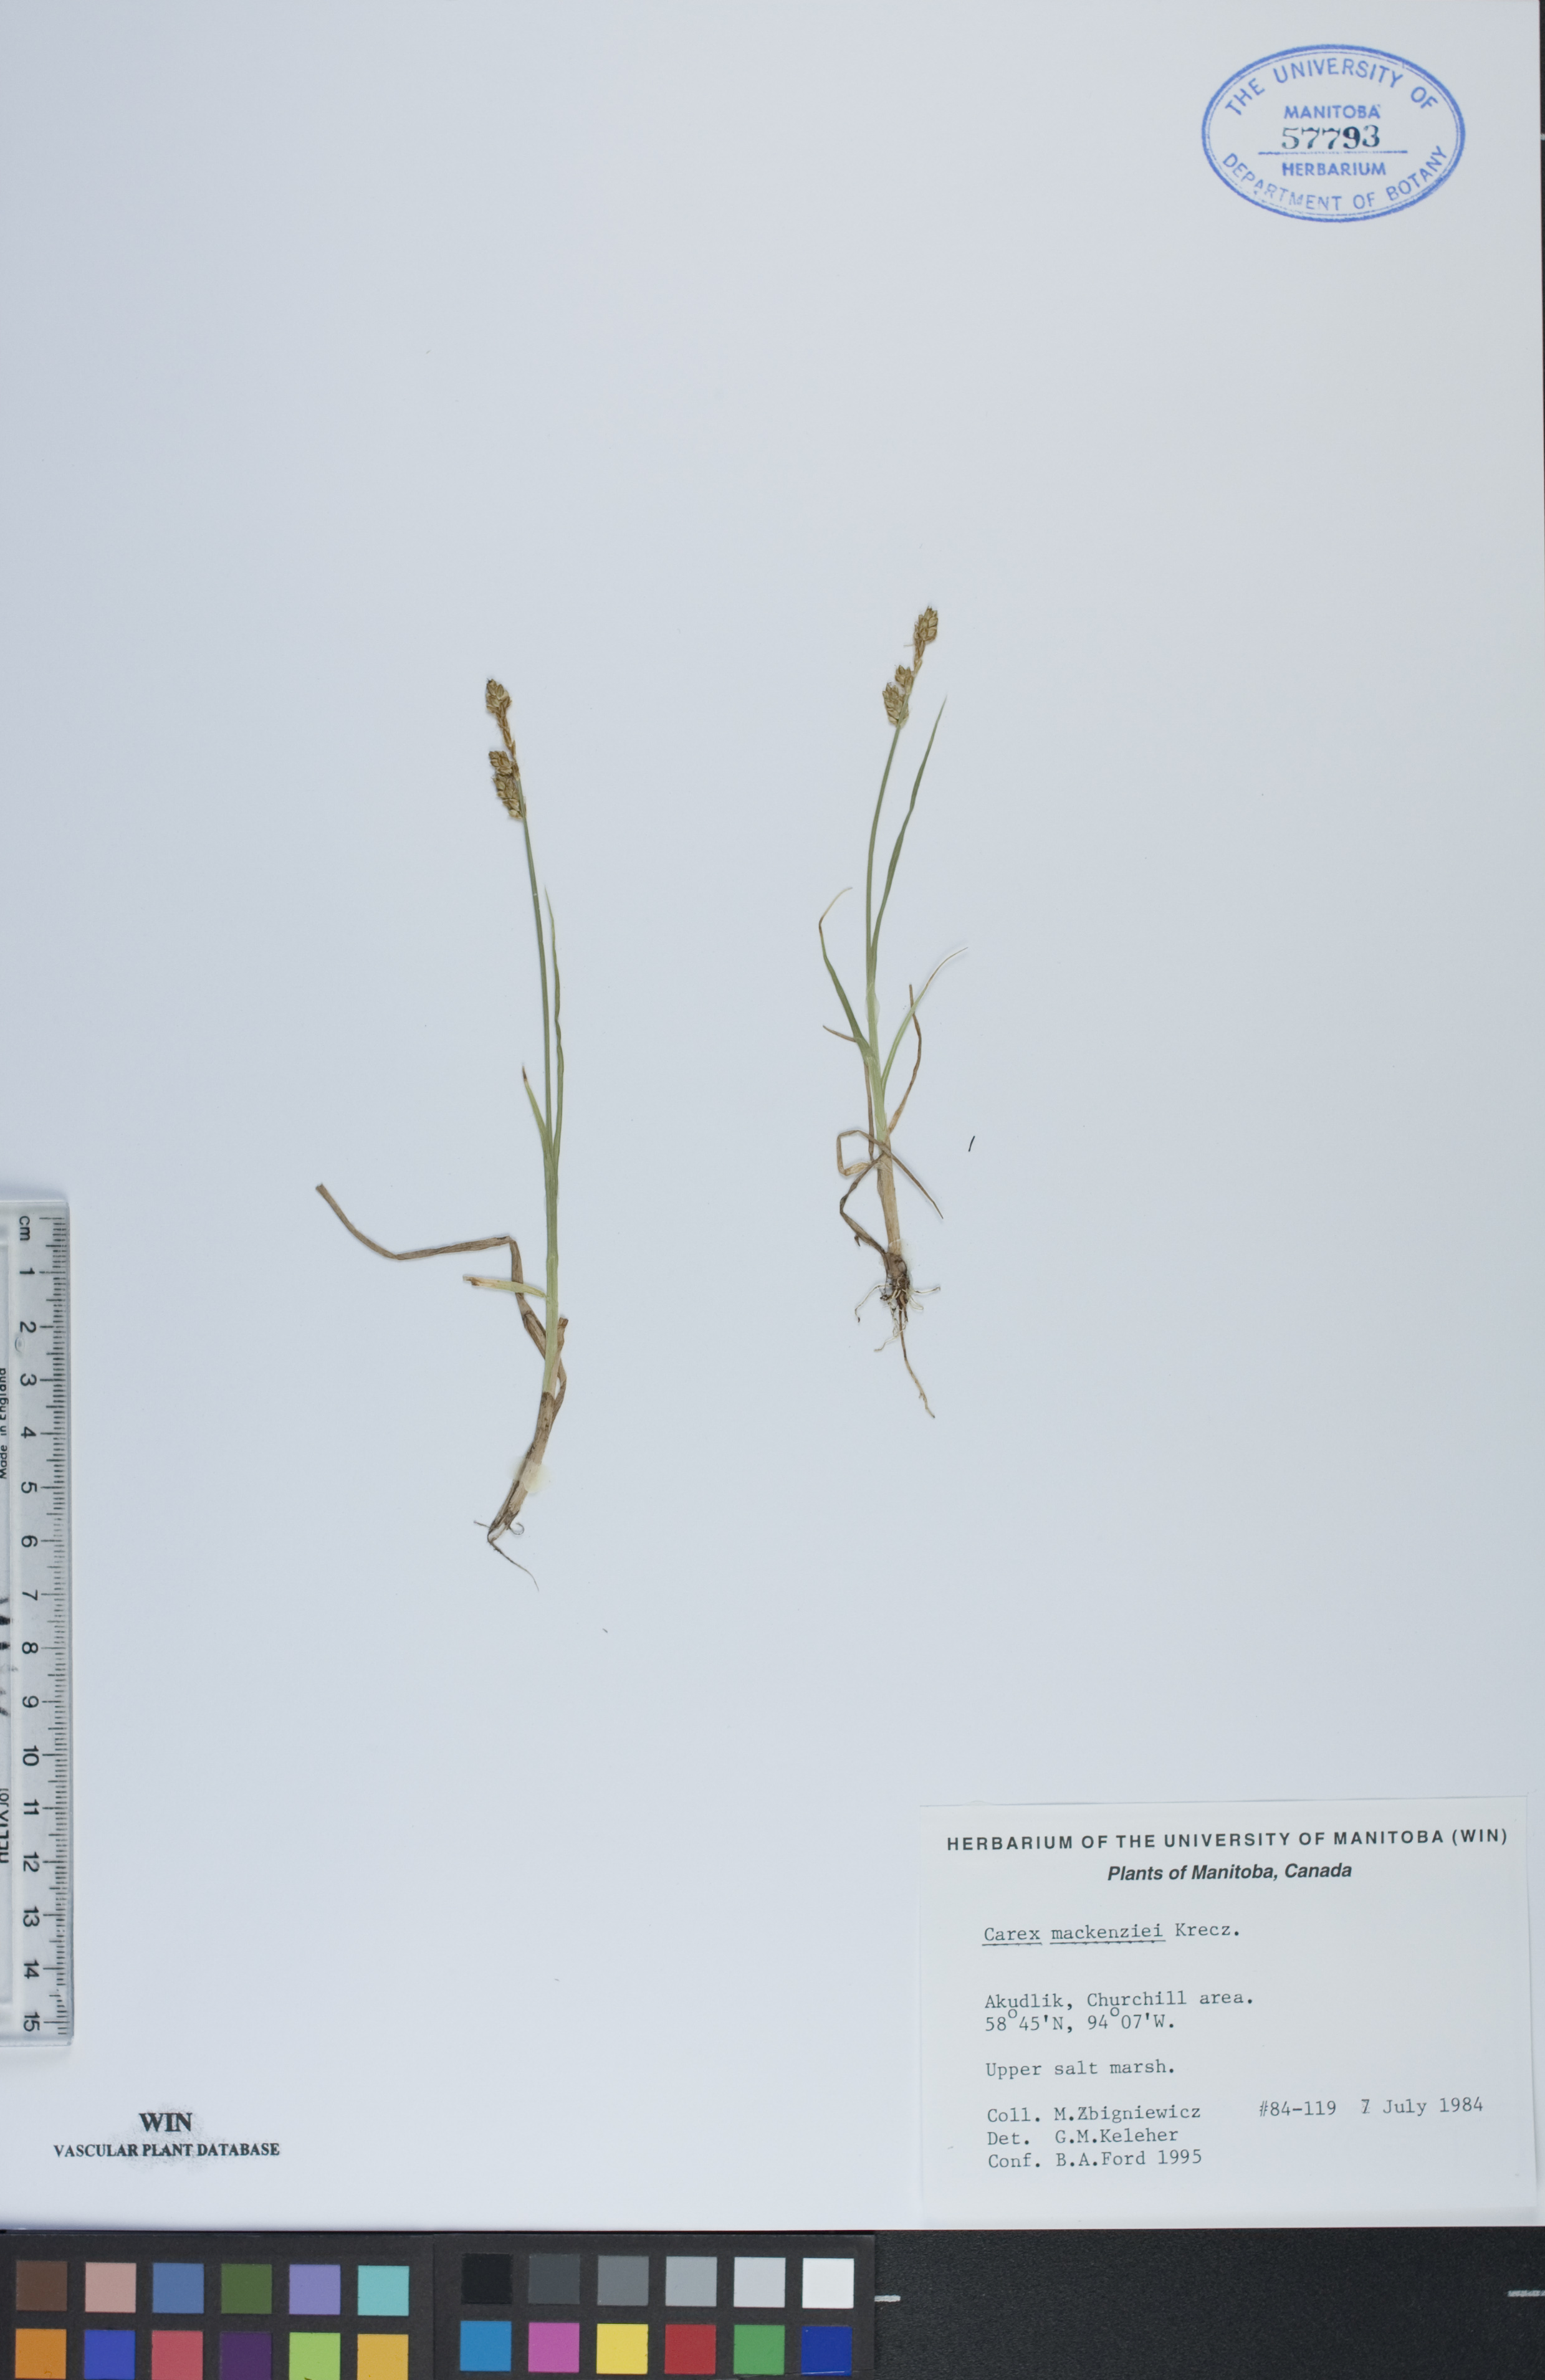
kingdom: Plantae
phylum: Tracheophyta
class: Liliopsida
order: Poales
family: Cyperaceae
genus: Carex
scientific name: Carex mackenziei
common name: Mackenzie's sedge
